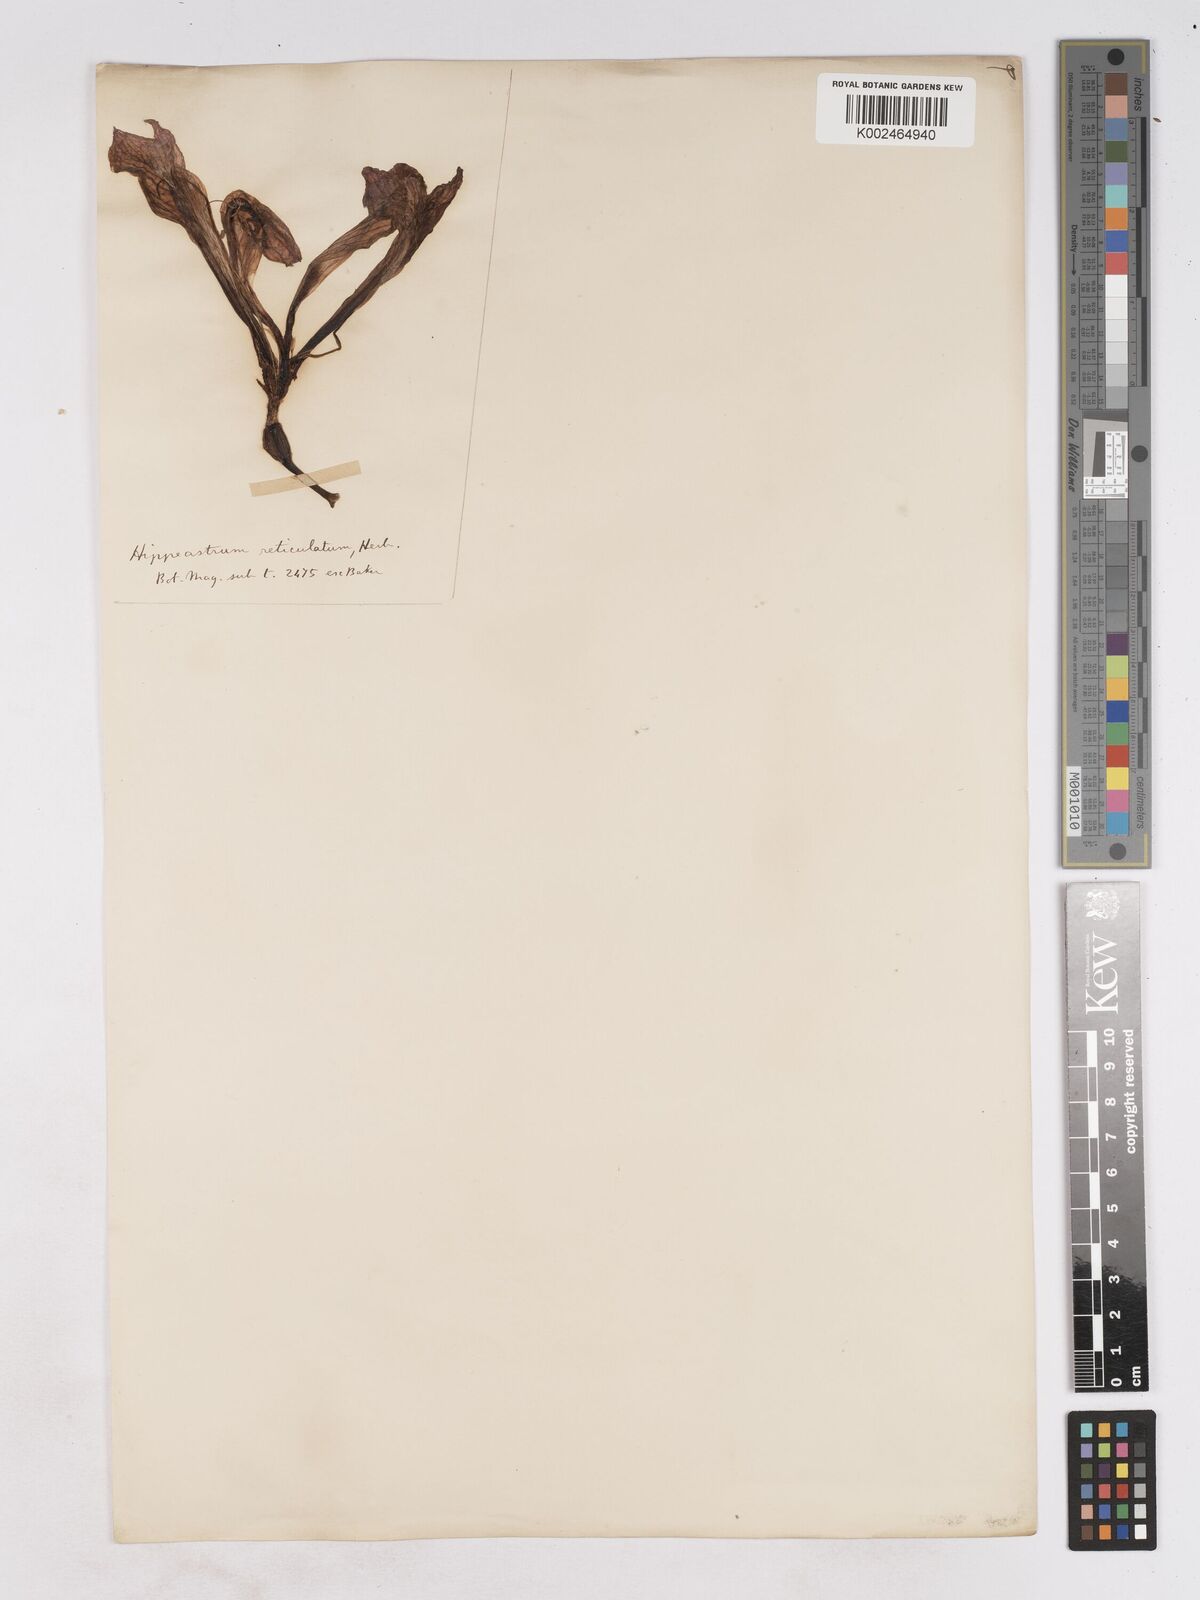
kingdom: Plantae
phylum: Tracheophyta
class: Liliopsida
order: Asparagales
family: Amaryllidaceae
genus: Hippeastrum
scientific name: Hippeastrum reticulatum
